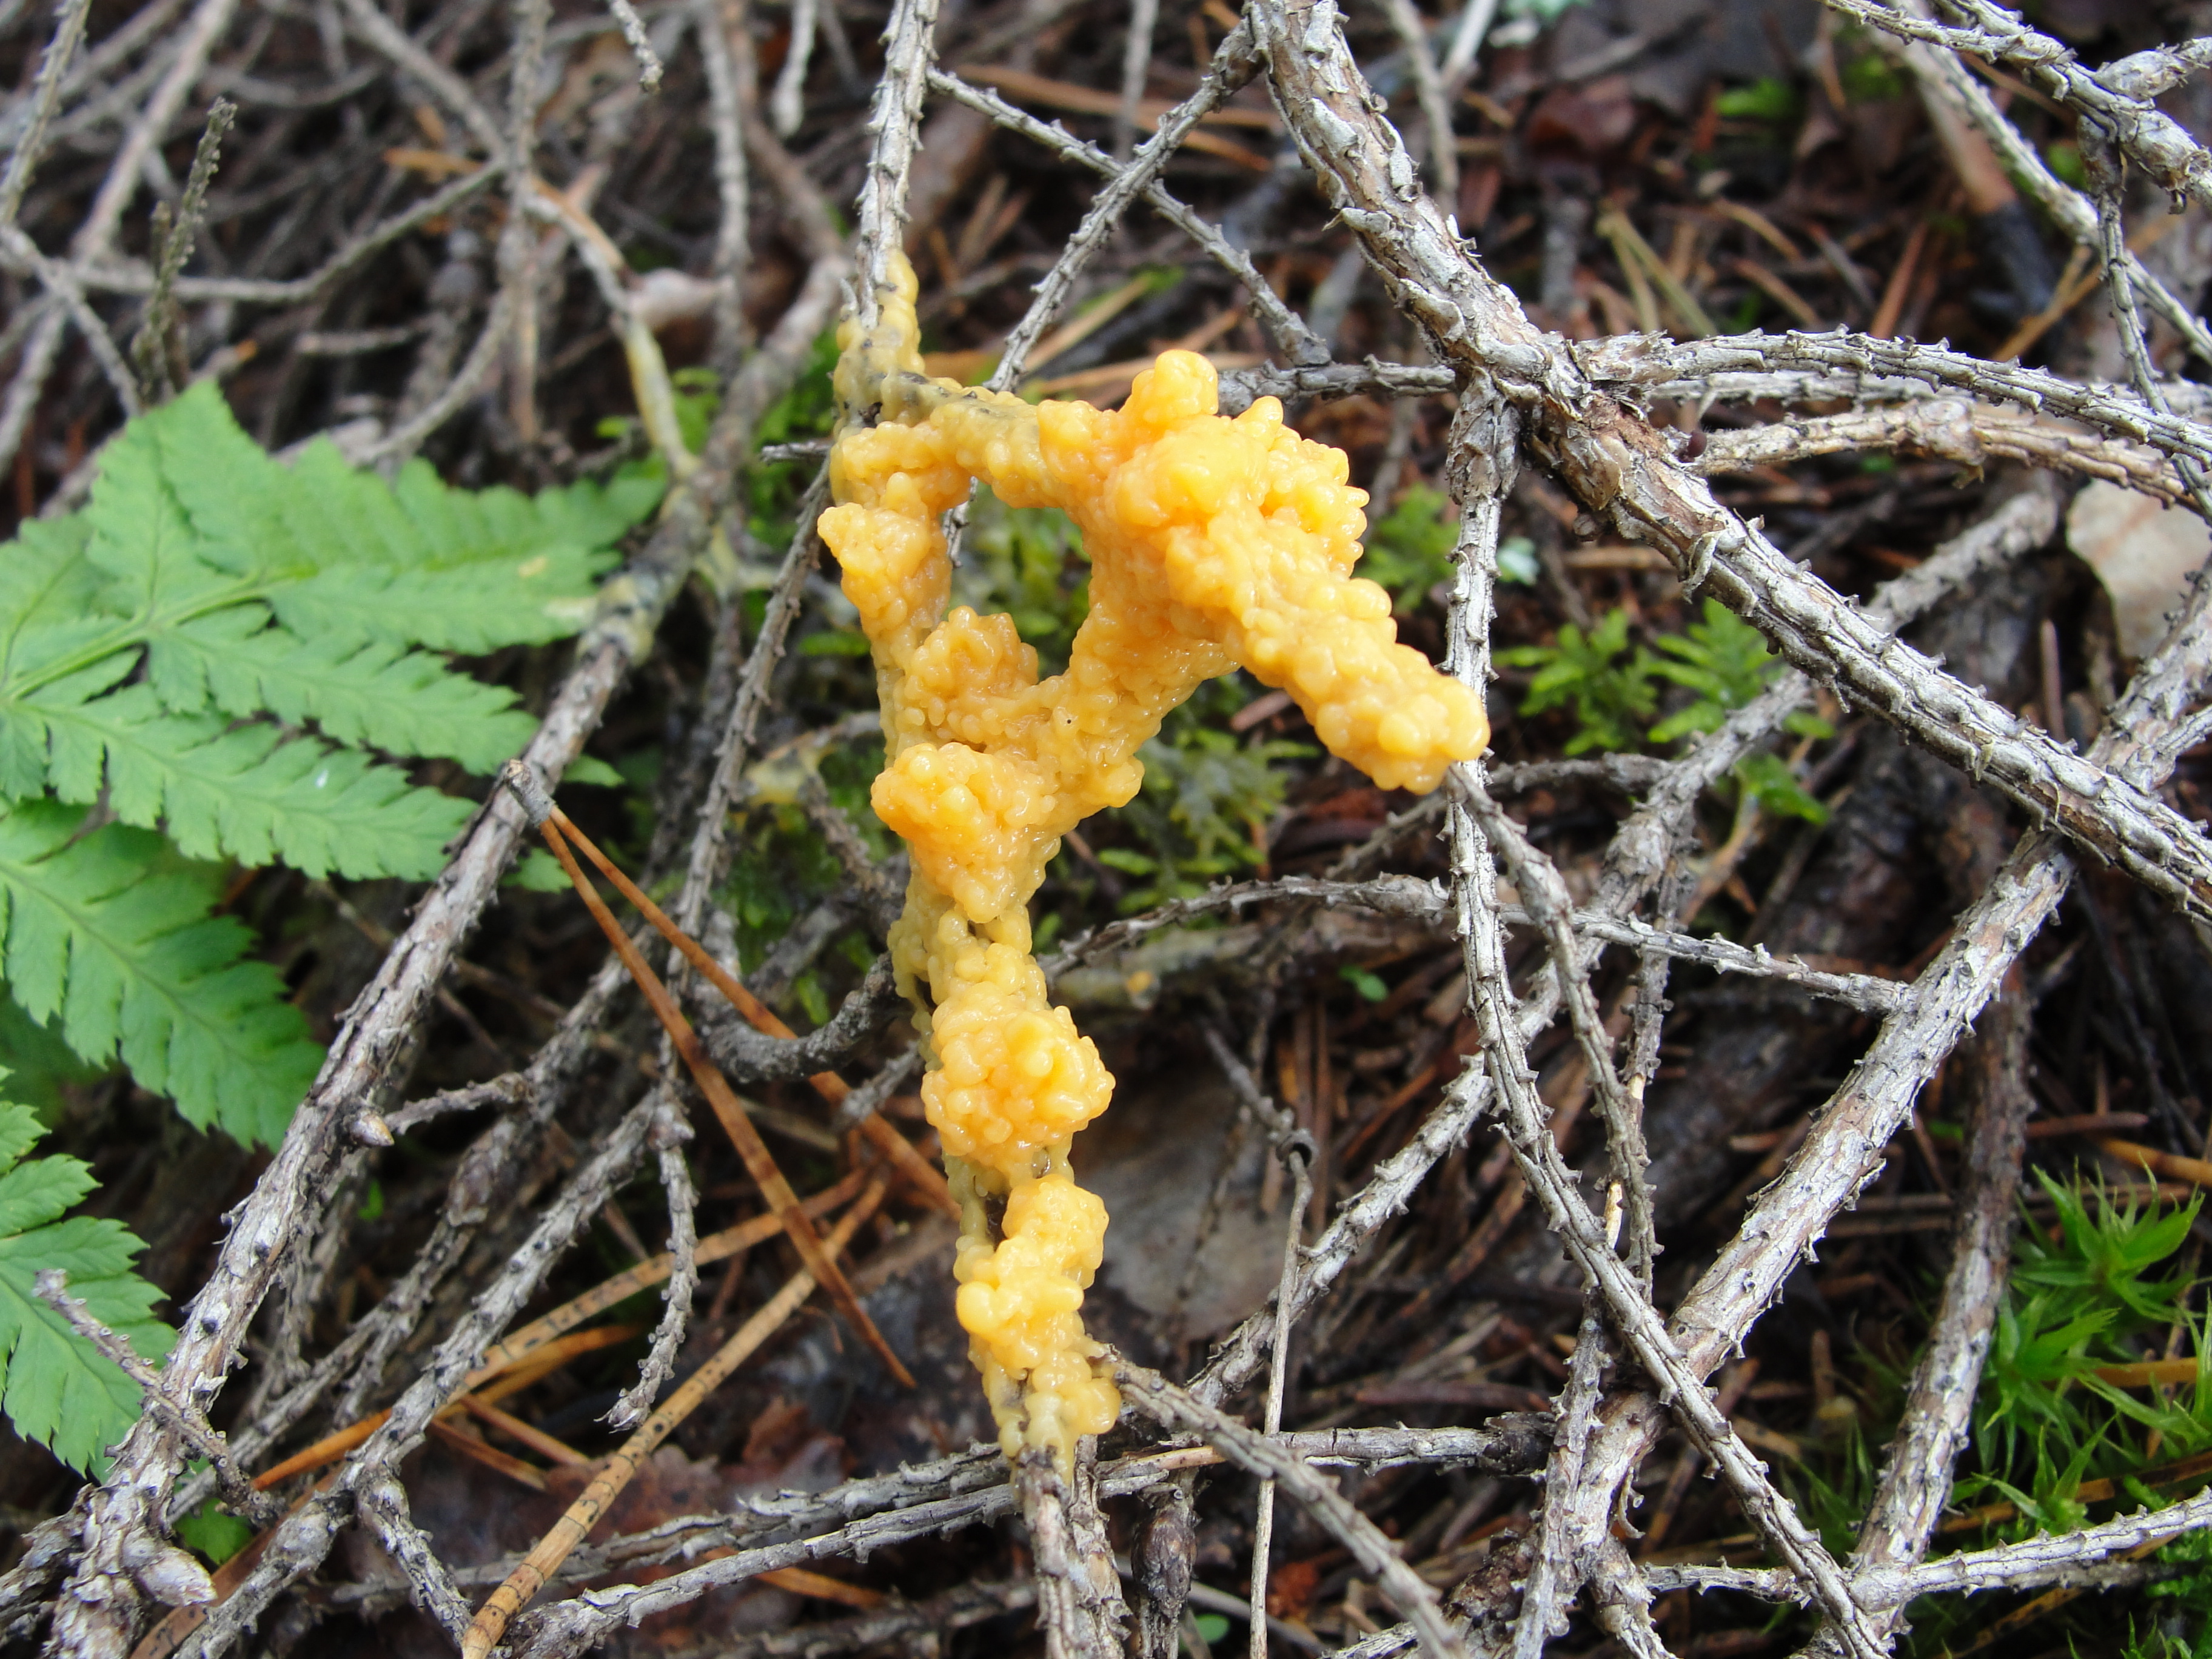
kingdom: Protozoa
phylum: Mycetozoa
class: Myxomycetes
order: Physarales
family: Physaraceae
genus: Fuligo
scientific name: Fuligo
